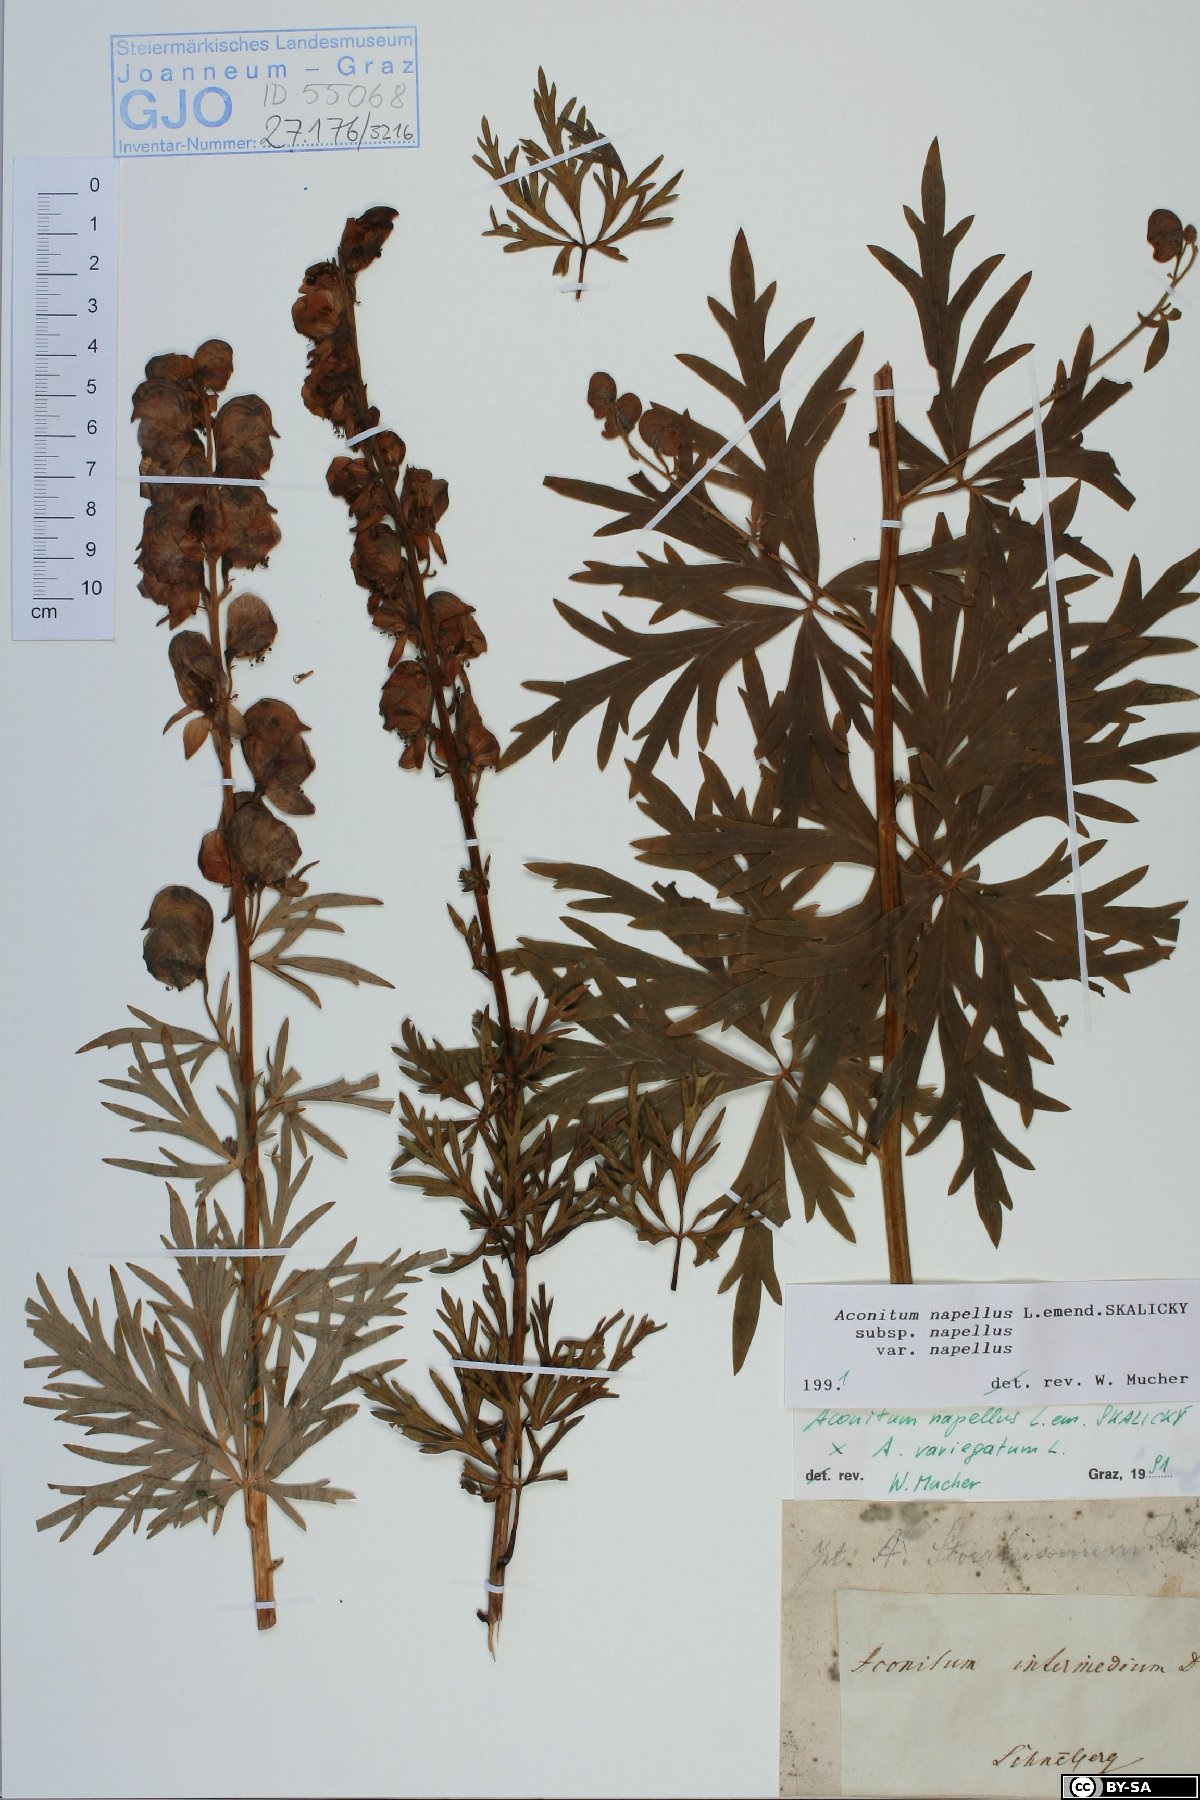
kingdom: Plantae
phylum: Tracheophyta
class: Magnoliopsida
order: Ranunculales
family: Ranunculaceae
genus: Aconitum
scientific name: Aconitum napellus
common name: Garden monkshood
